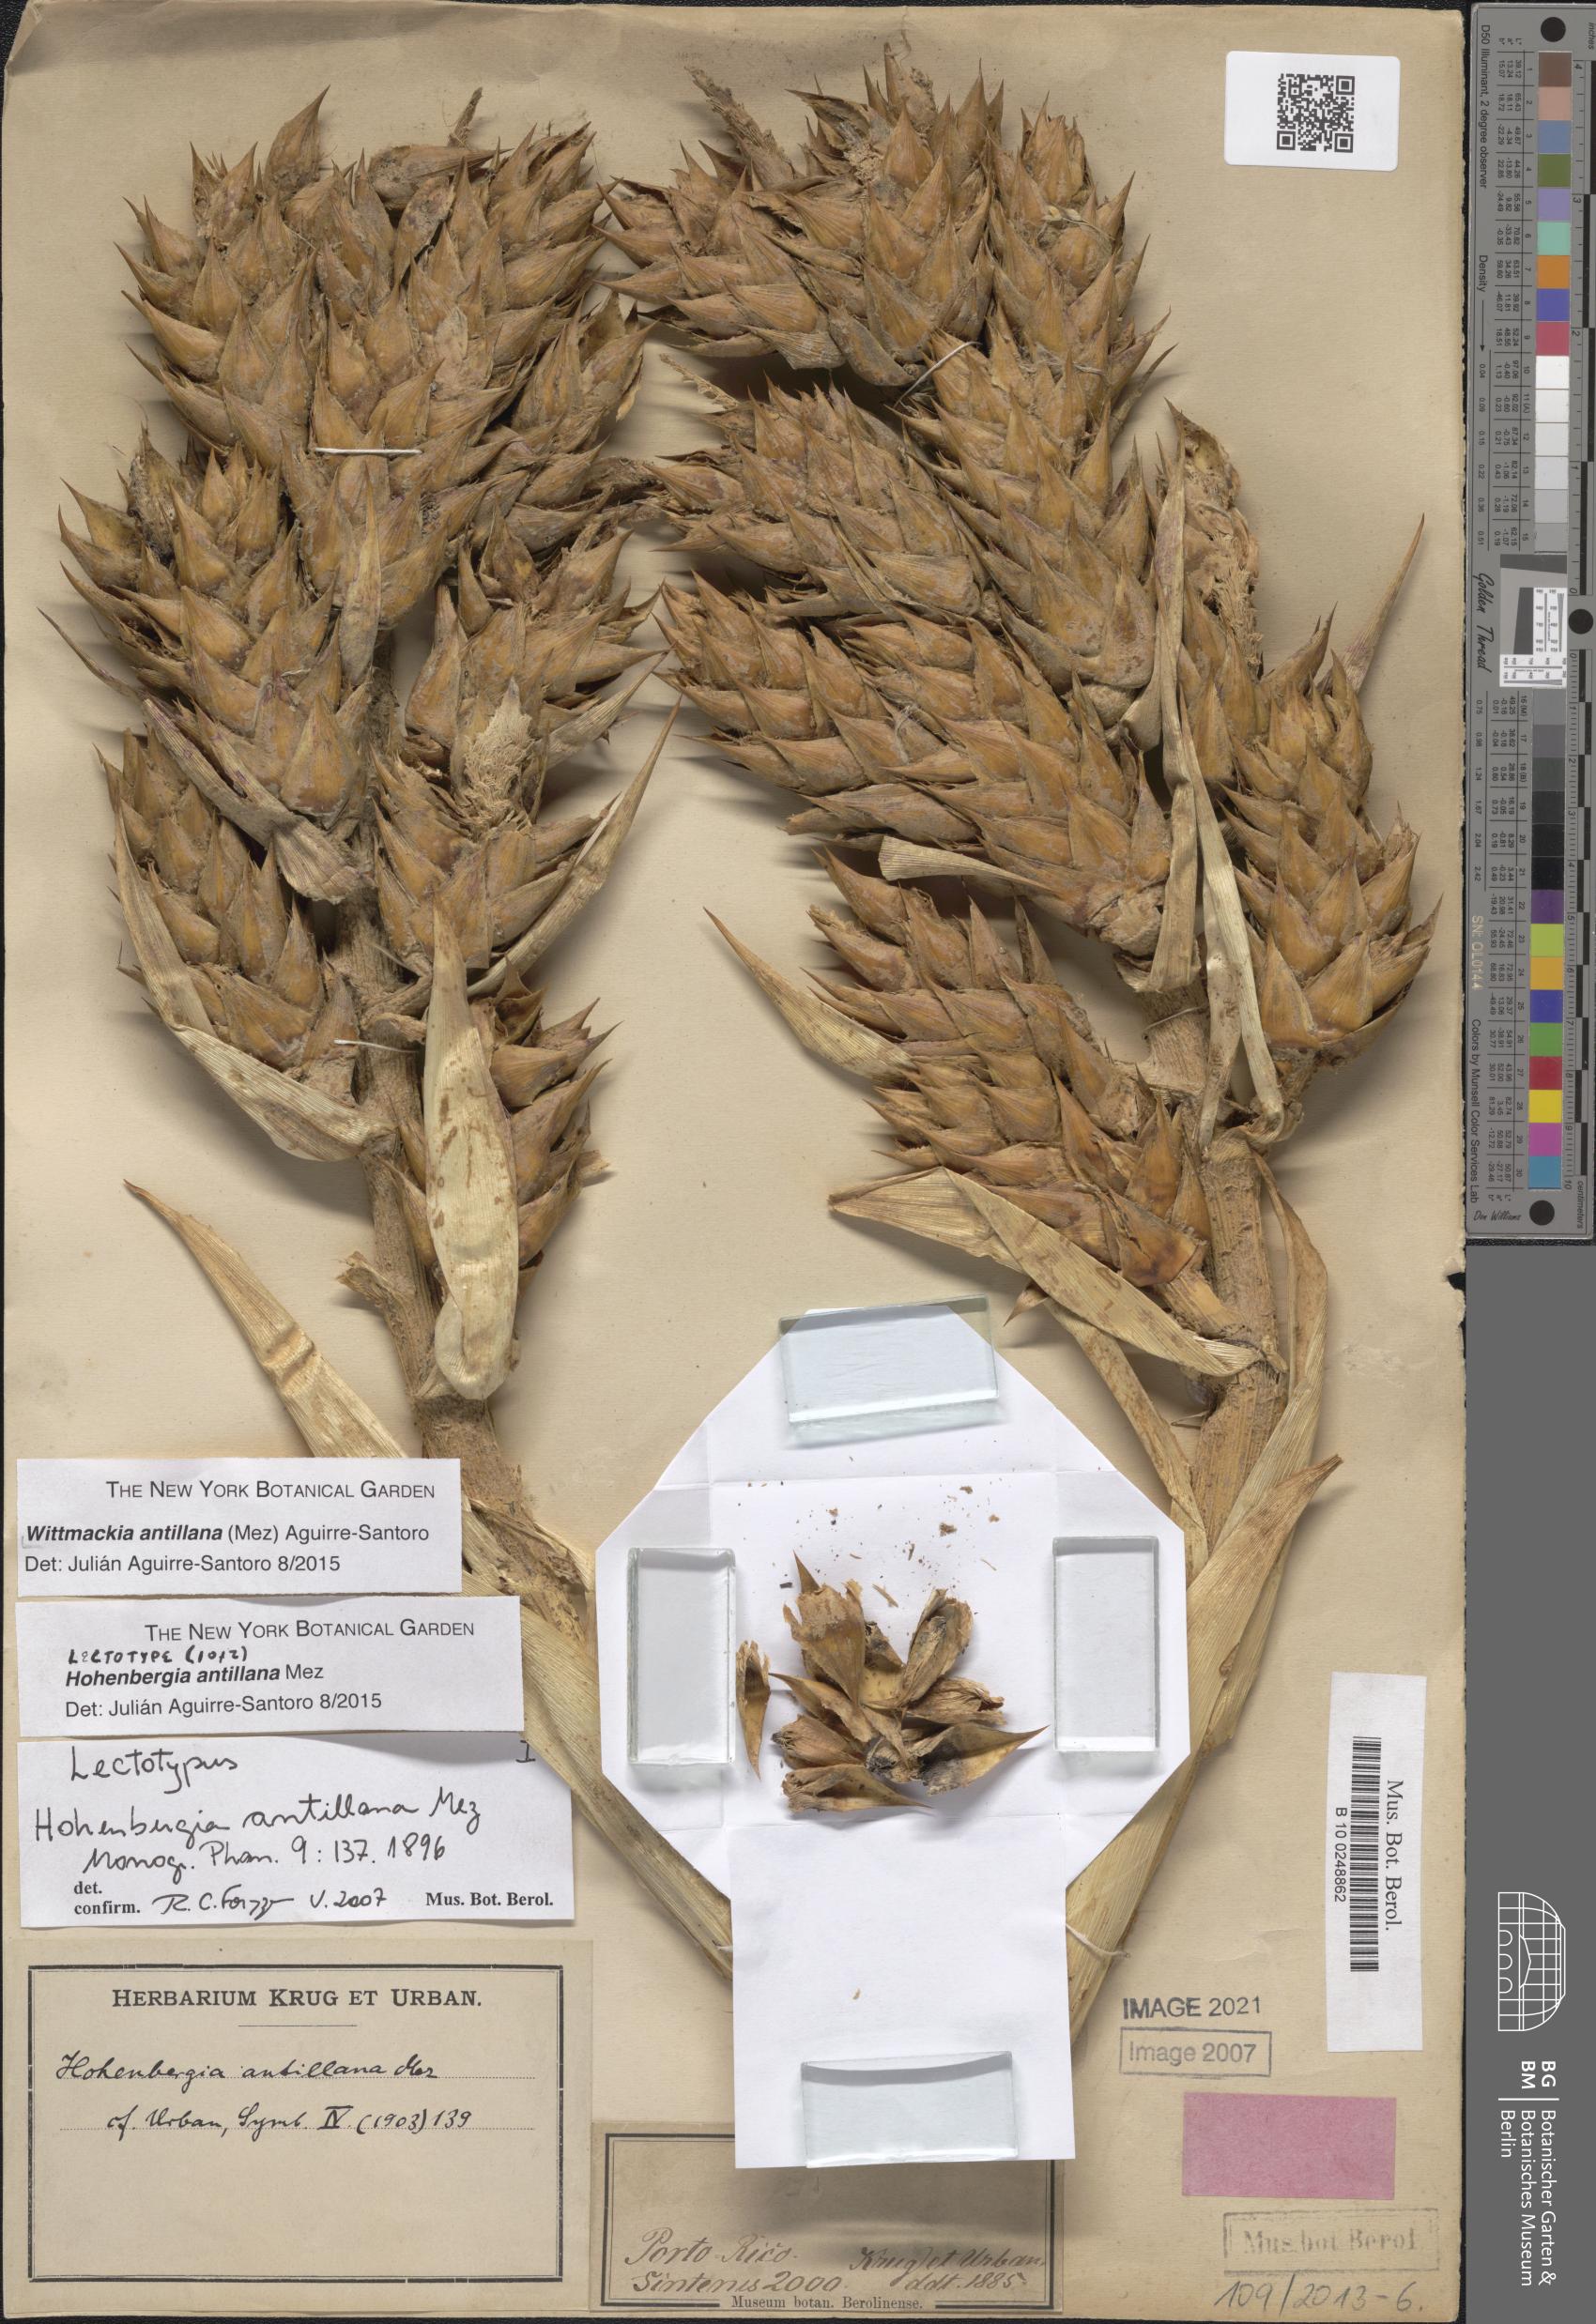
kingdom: Plantae
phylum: Tracheophyta
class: Liliopsida
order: Poales
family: Bromeliaceae
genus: Wittmackia
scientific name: Wittmackia antillana
